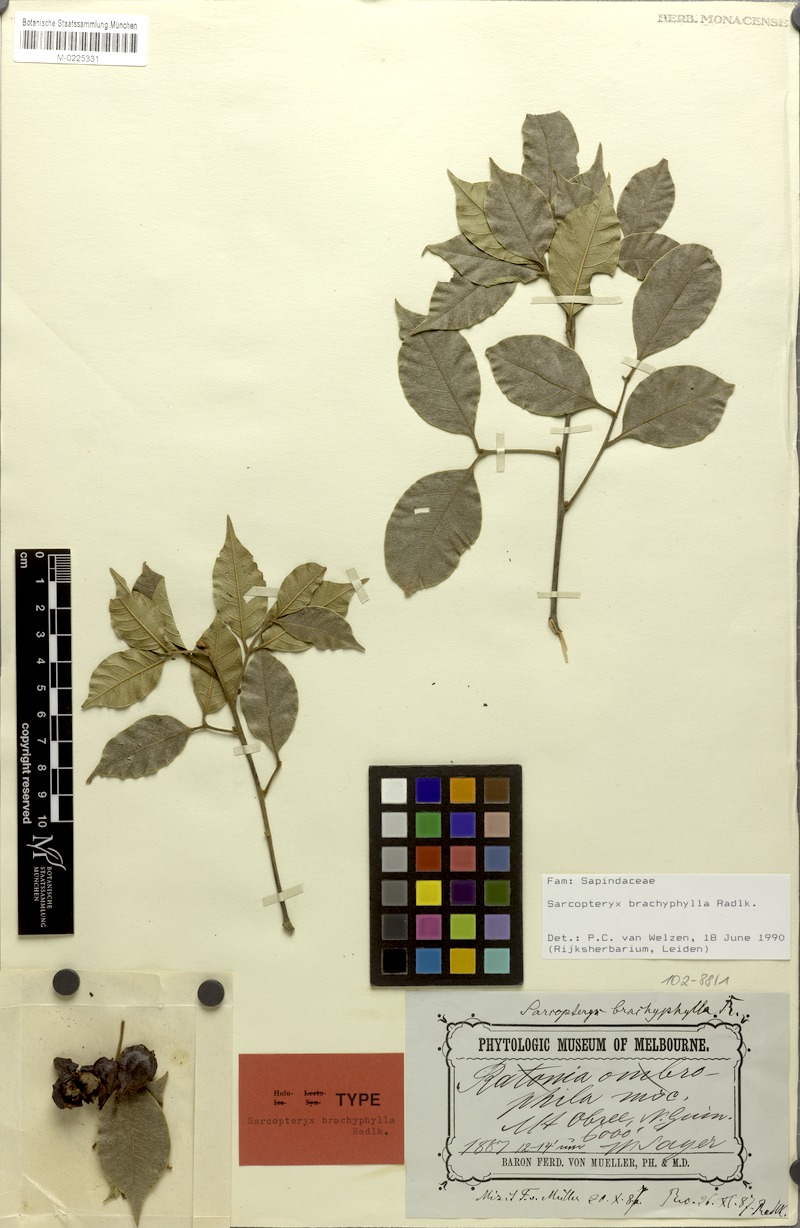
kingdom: Plantae
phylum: Tracheophyta
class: Magnoliopsida
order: Sapindales
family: Sapindaceae
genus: Sarcopteryx
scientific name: Sarcopteryx brachyphylla
